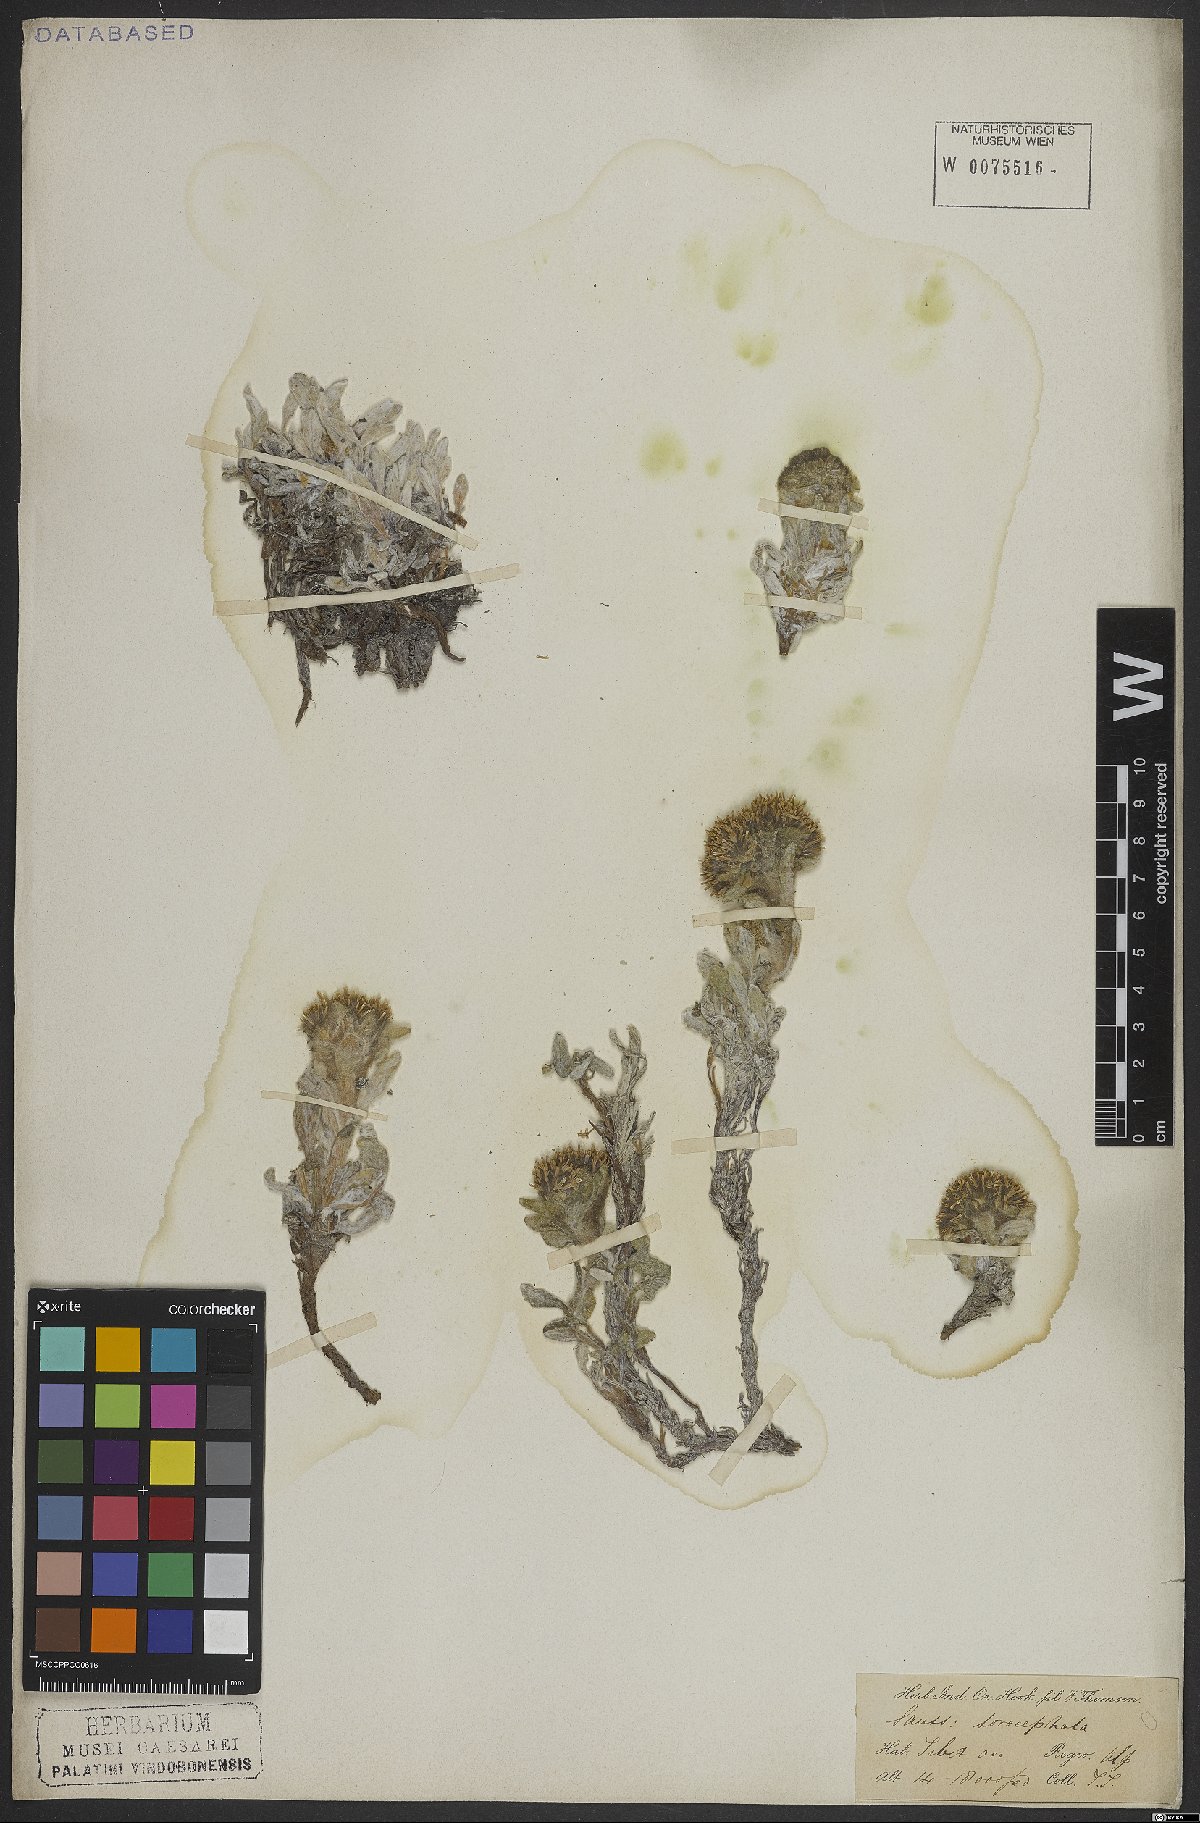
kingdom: Plantae
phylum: Tracheophyta
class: Magnoliopsida
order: Asterales
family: Asteraceae
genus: Saussurea
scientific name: Saussurea
